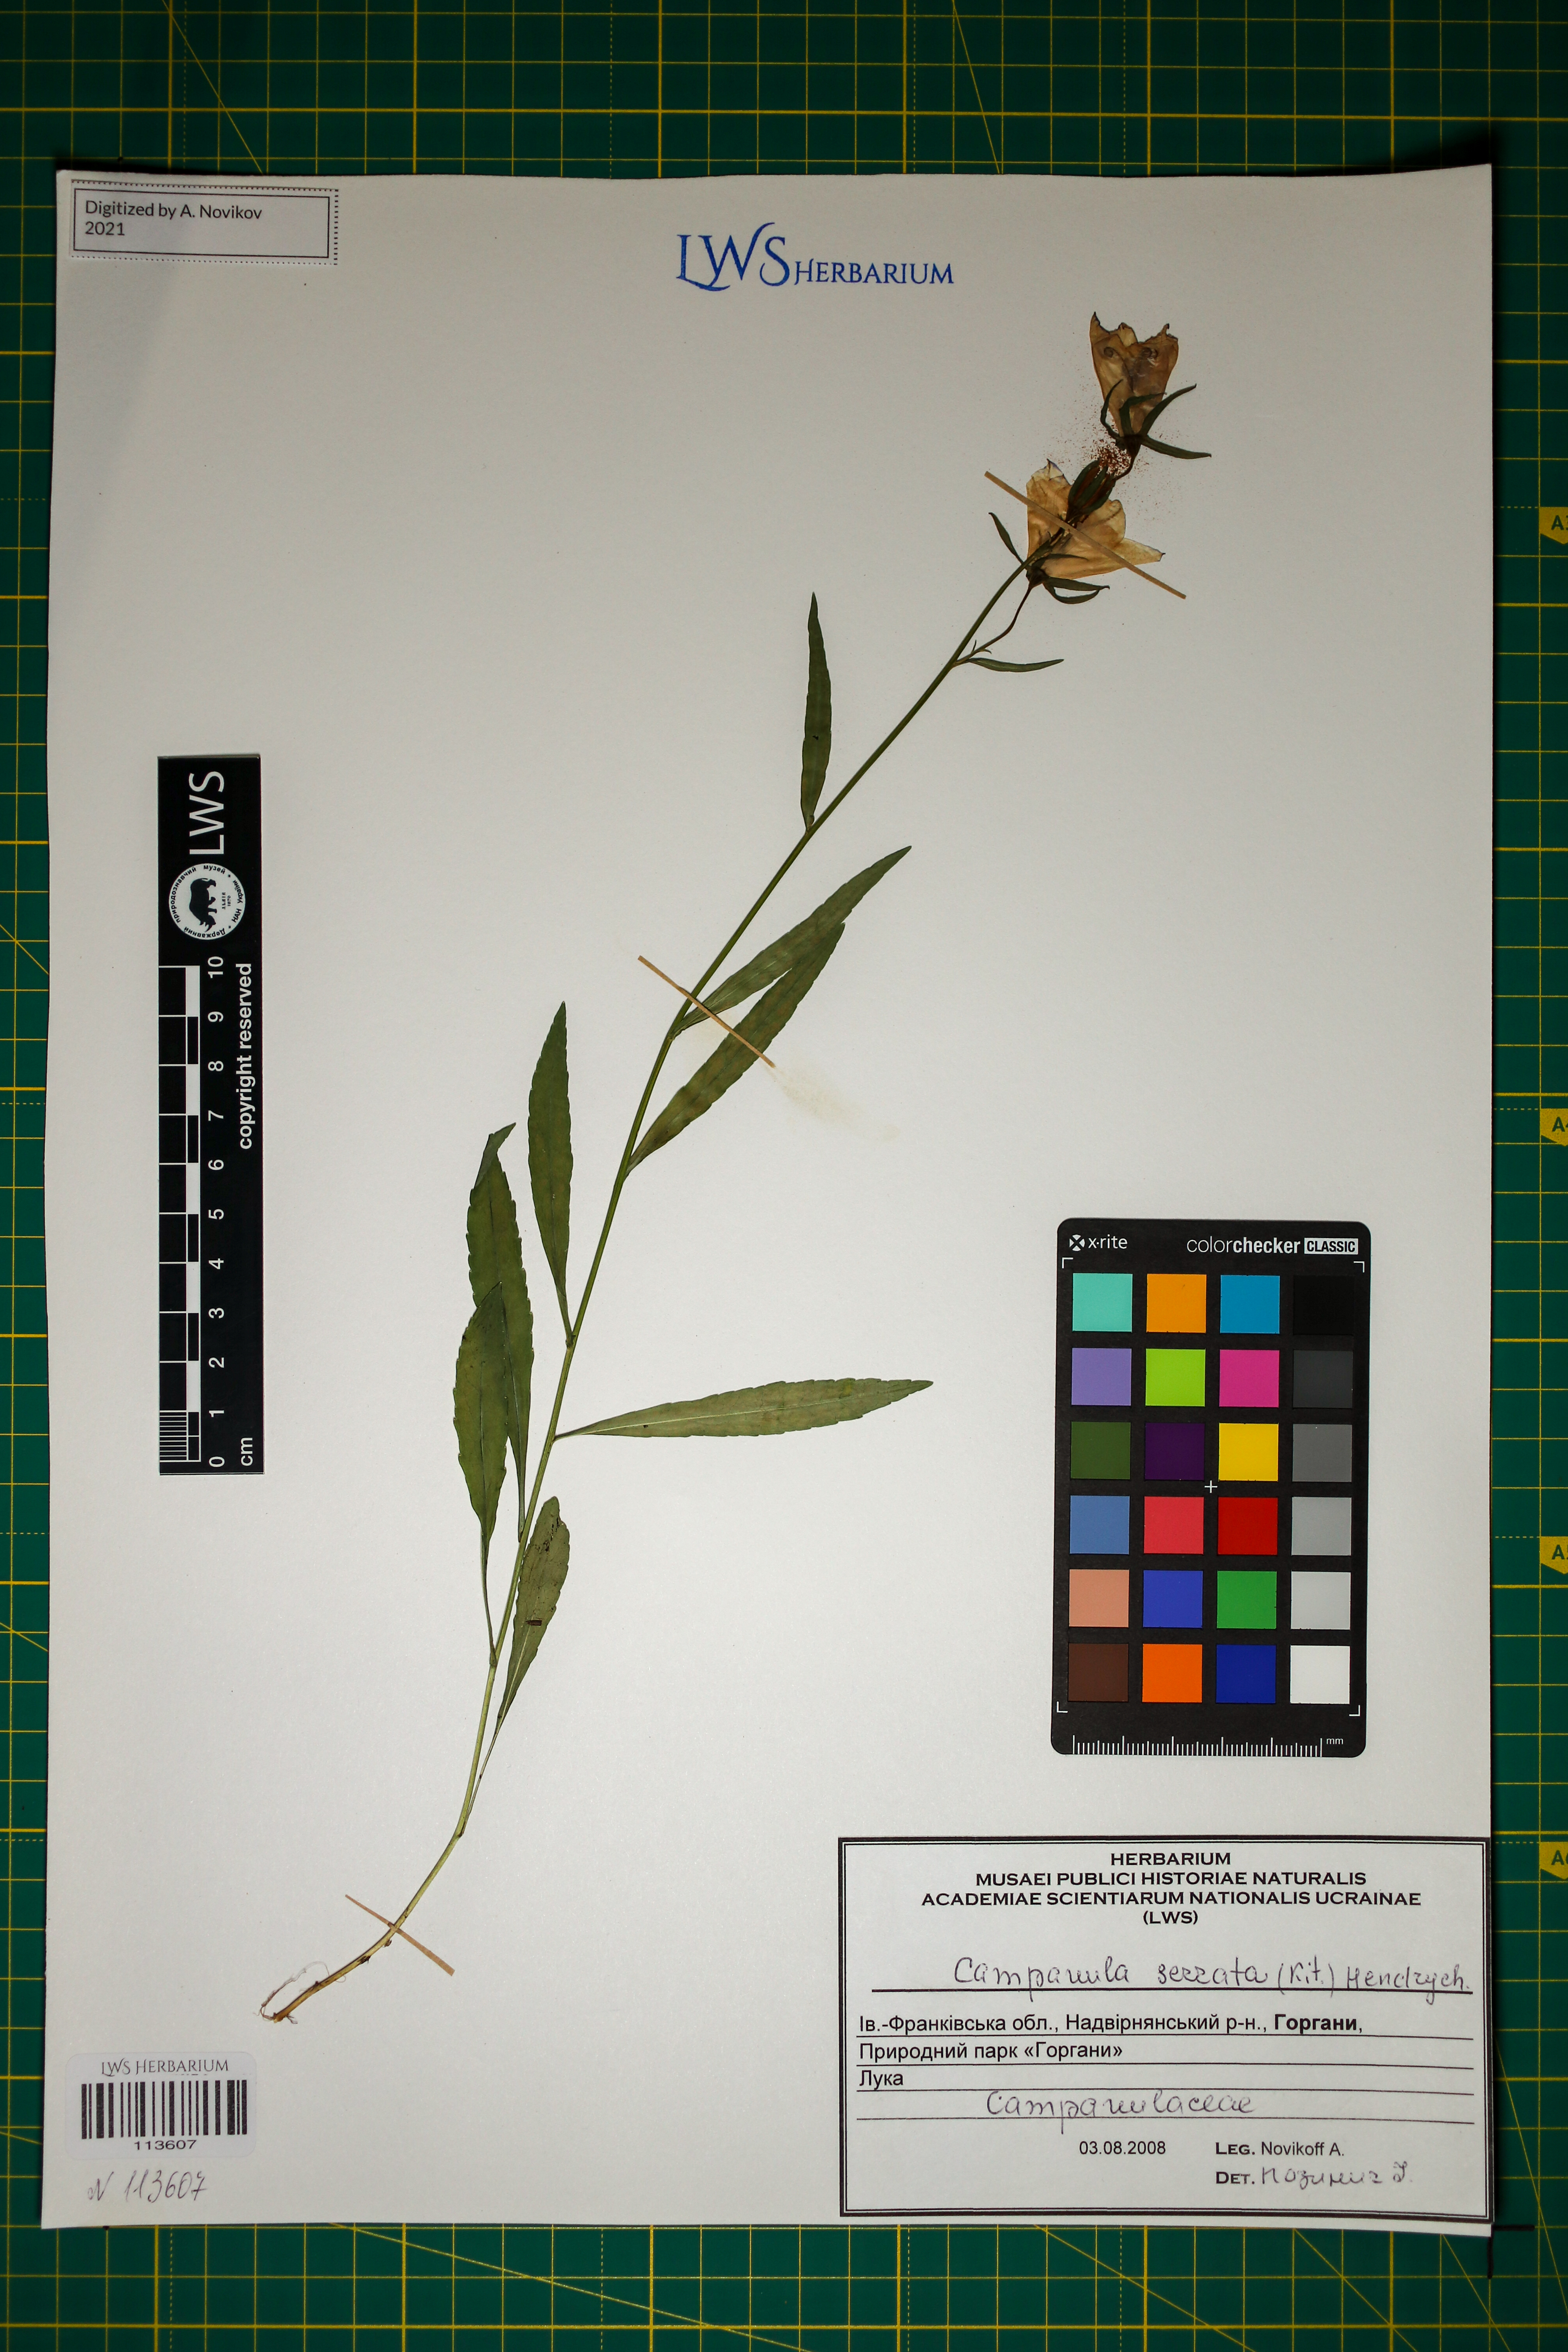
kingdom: Plantae
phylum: Tracheophyta
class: Magnoliopsida
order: Asterales
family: Campanulaceae
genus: Campanula
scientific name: Campanula serrata
